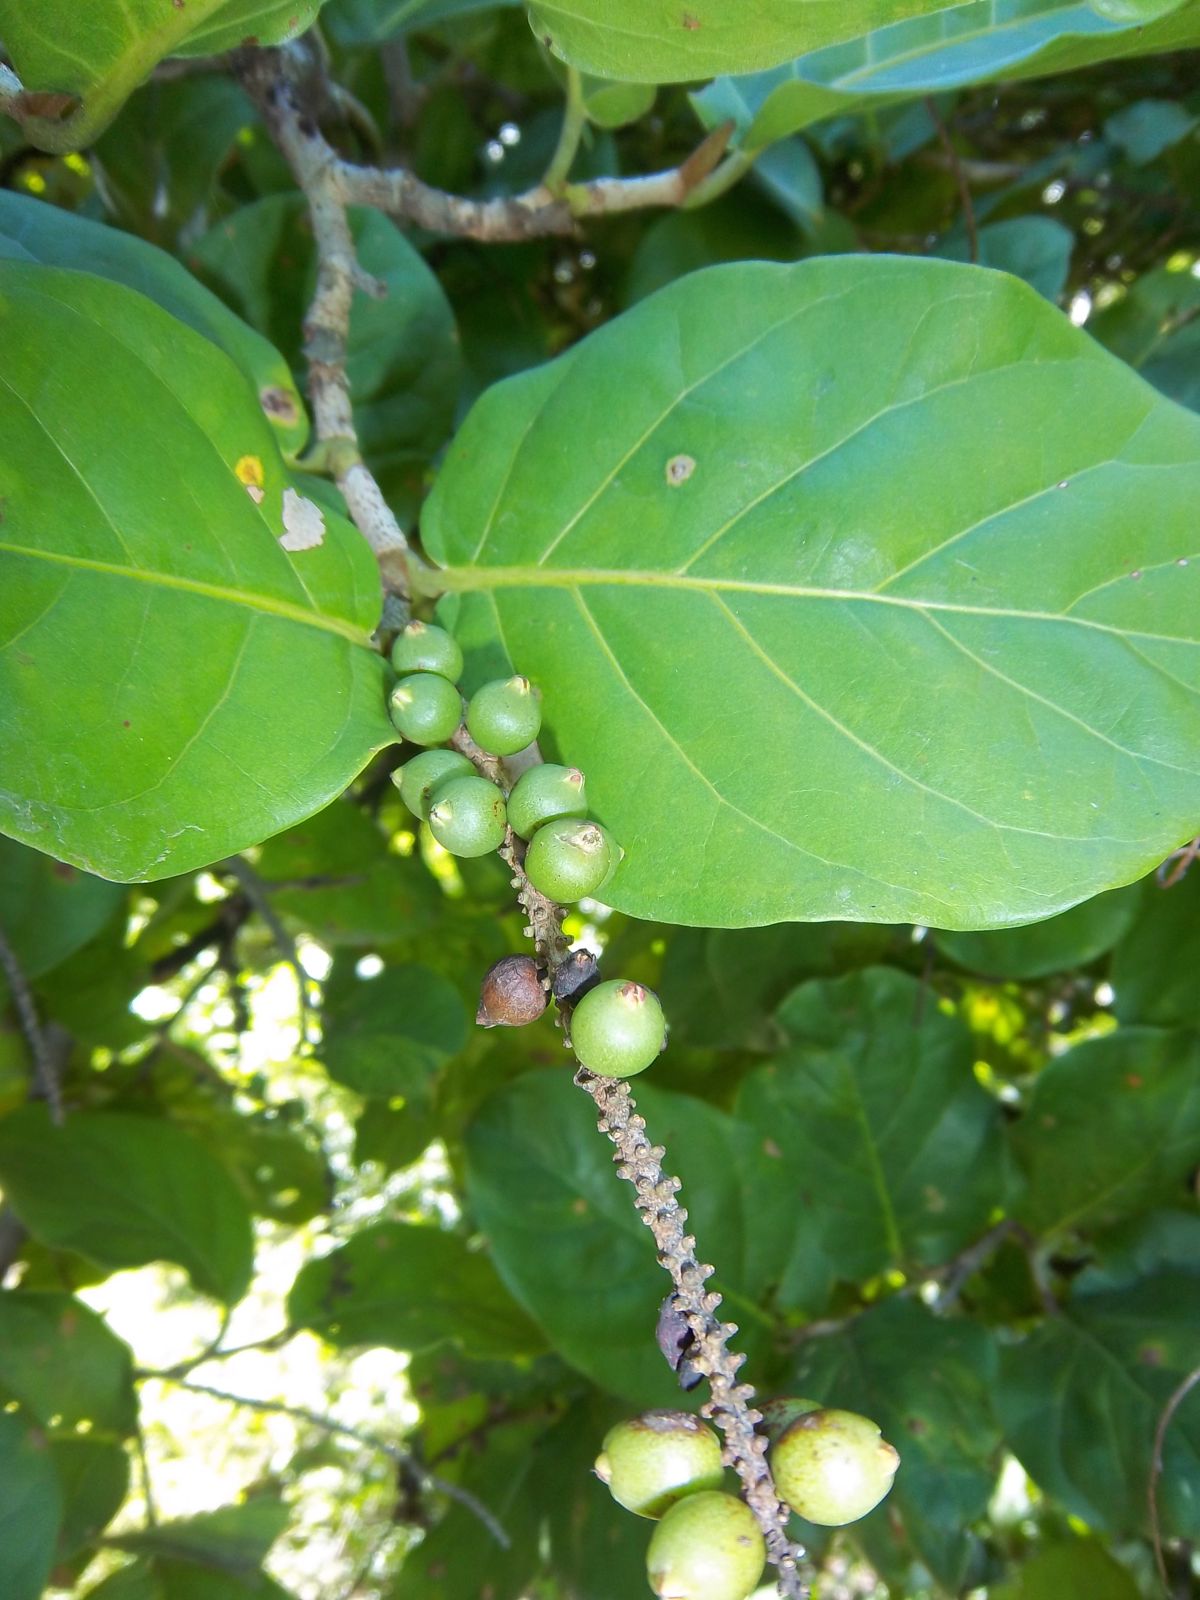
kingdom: Plantae
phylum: Tracheophyta
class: Magnoliopsida
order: Caryophyllales
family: Polygonaceae
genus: Coccoloba
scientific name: Coccoloba barbadensis
